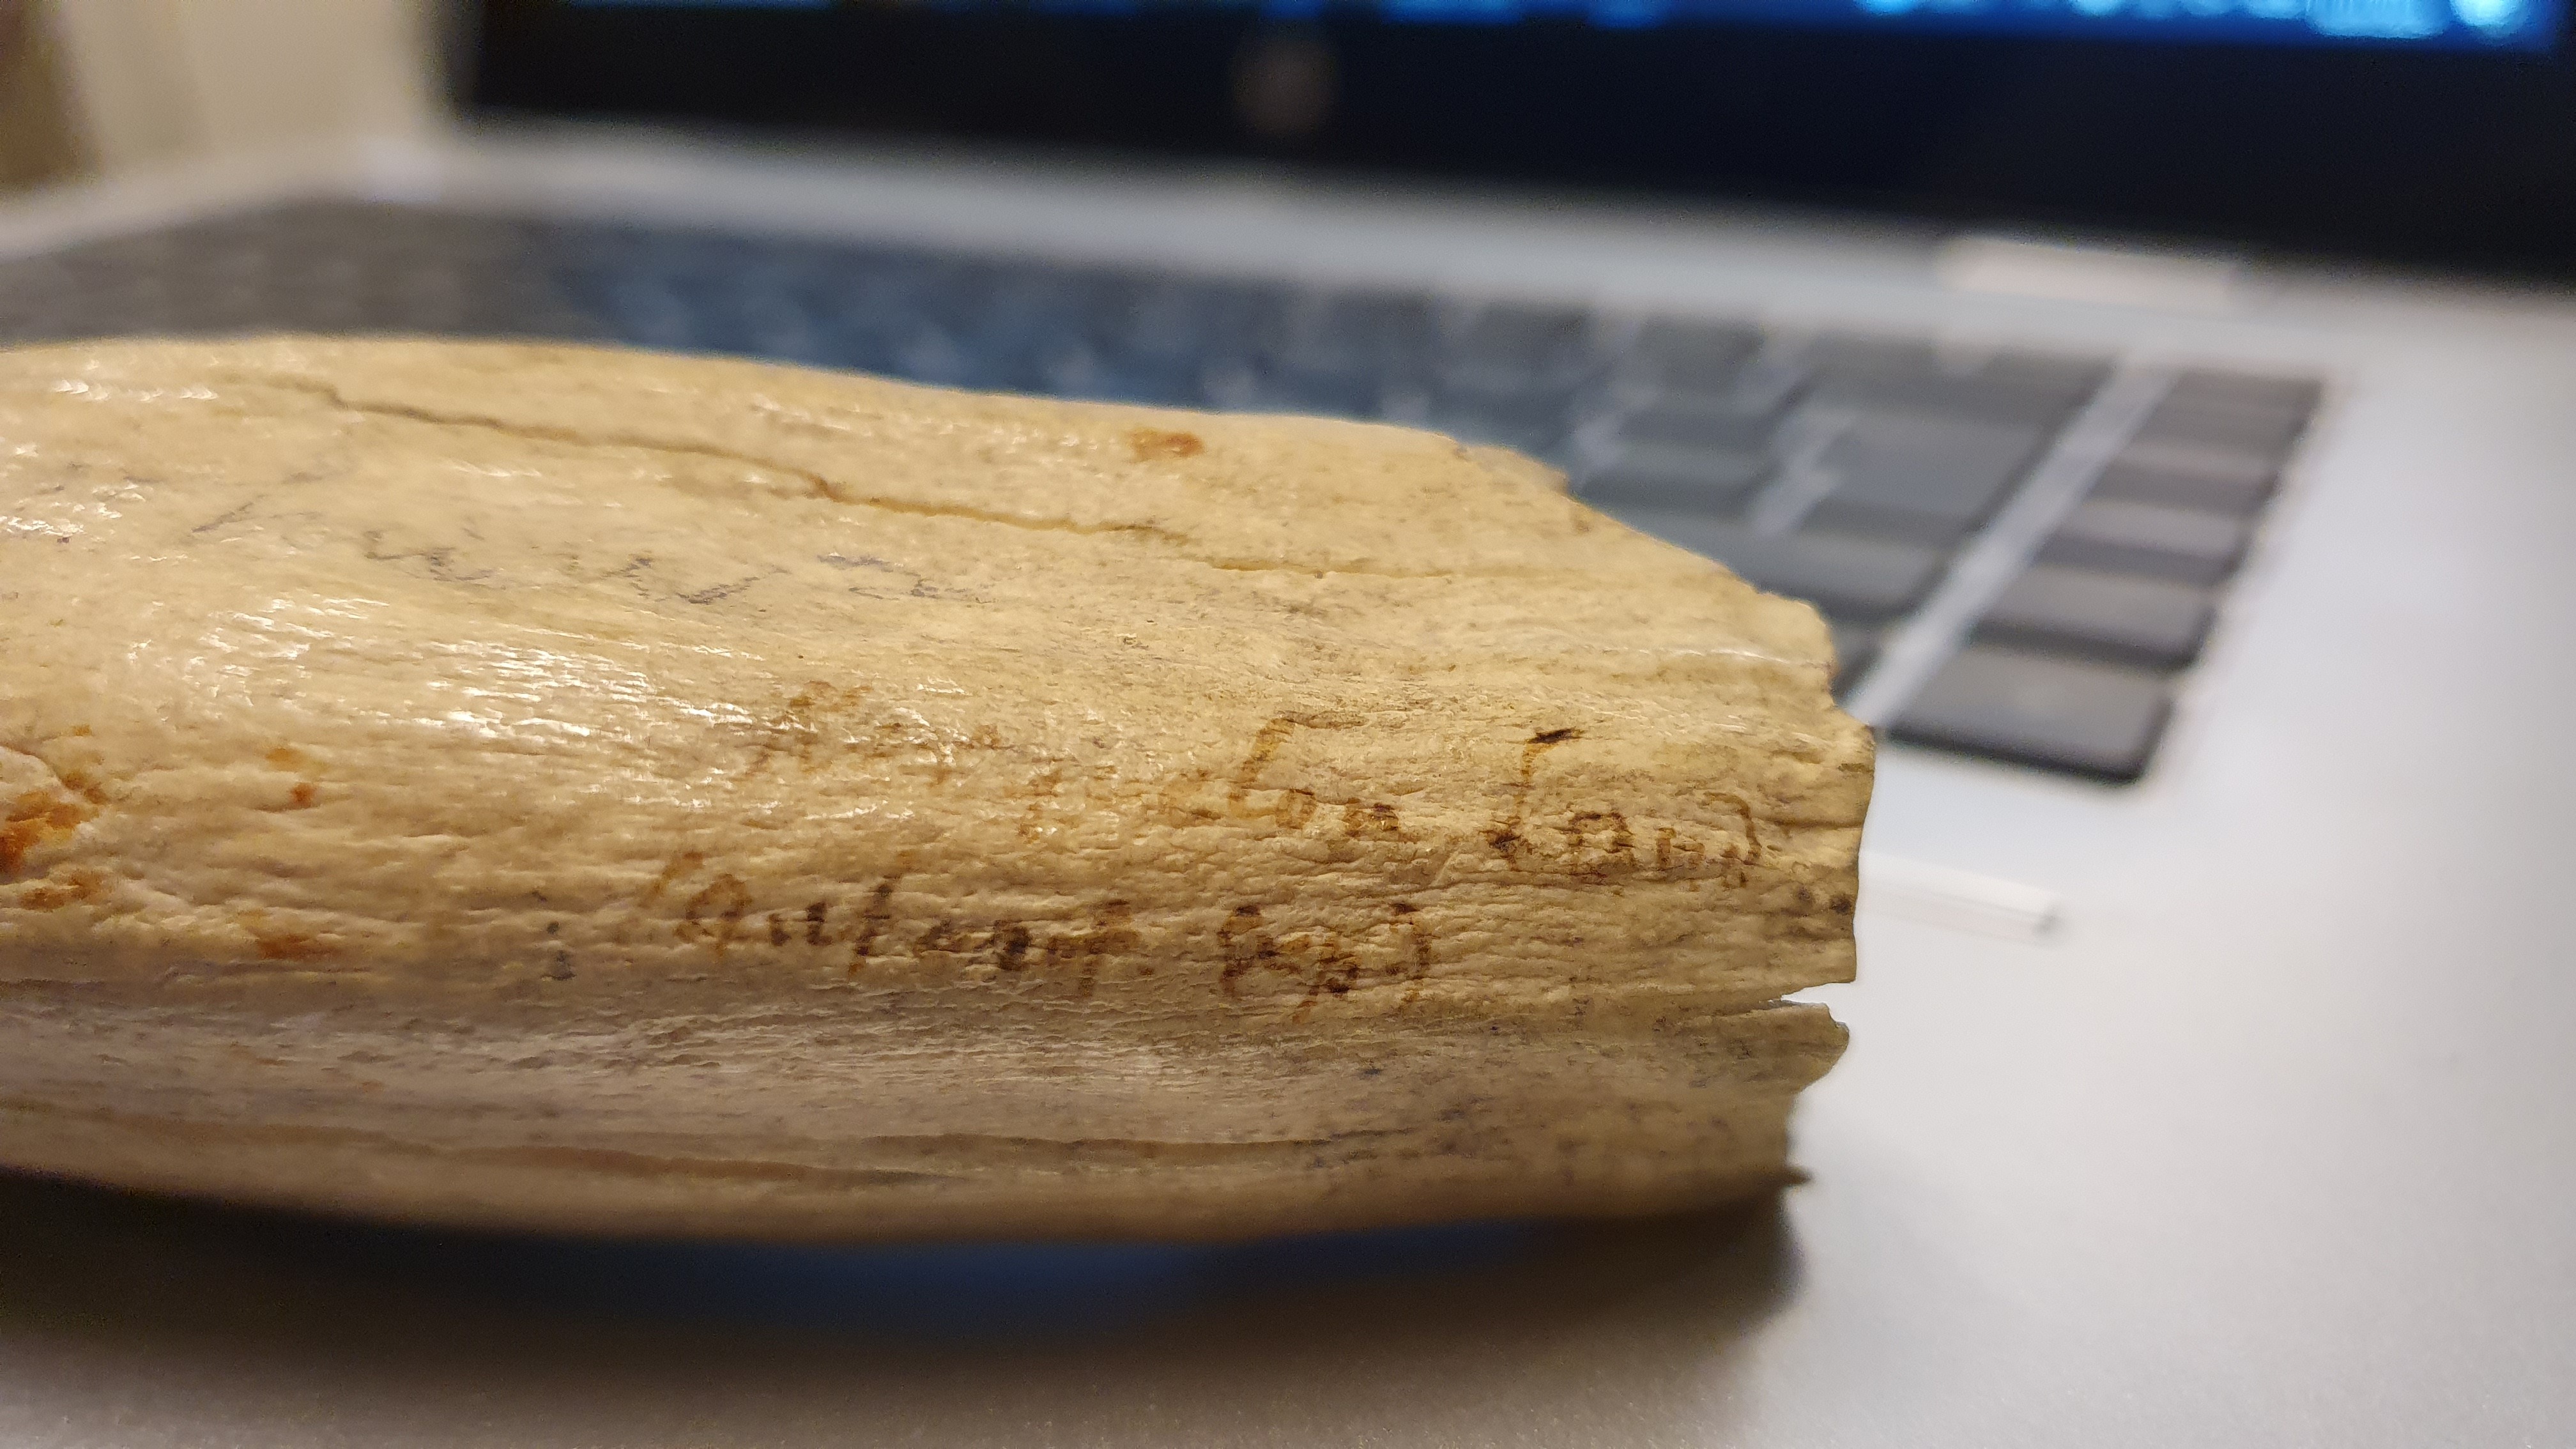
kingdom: Animalia
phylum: Chordata
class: Mammalia
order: Cetacea
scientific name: Cetacea
